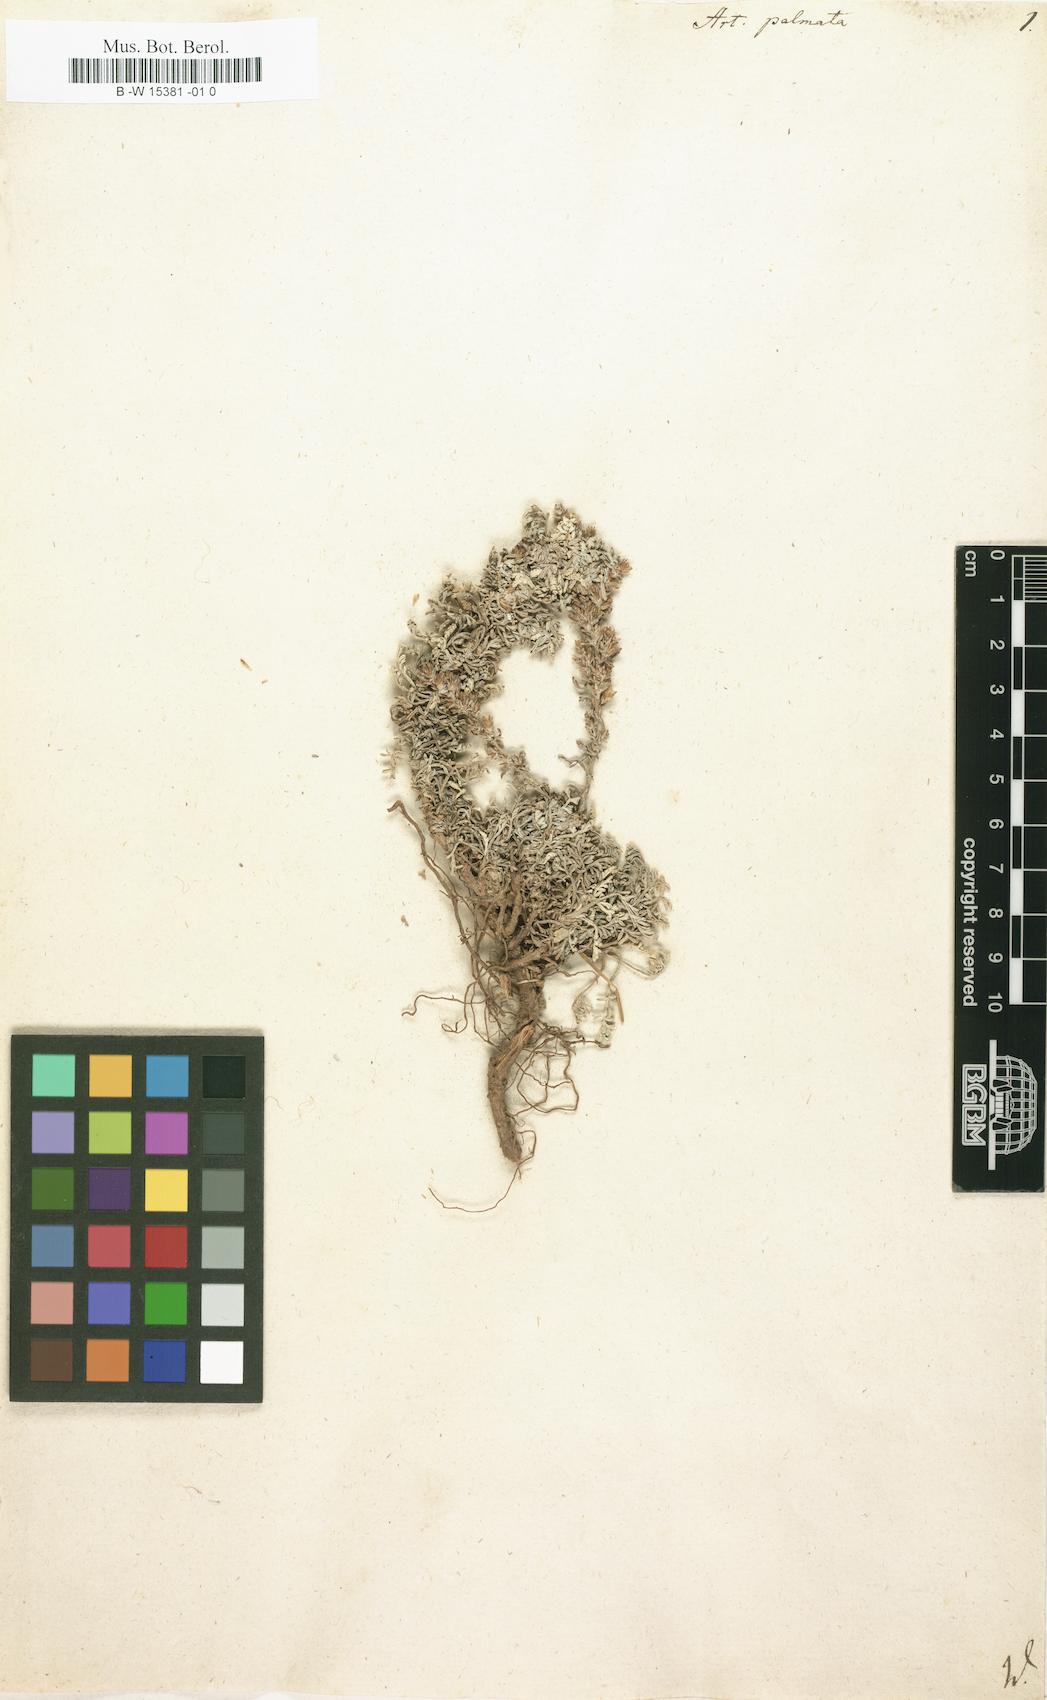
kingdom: Plantae
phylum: Tracheophyta
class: Magnoliopsida
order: Asterales
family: Asteraceae
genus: Artemisia
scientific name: Artemisia maritima
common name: Wormseed
